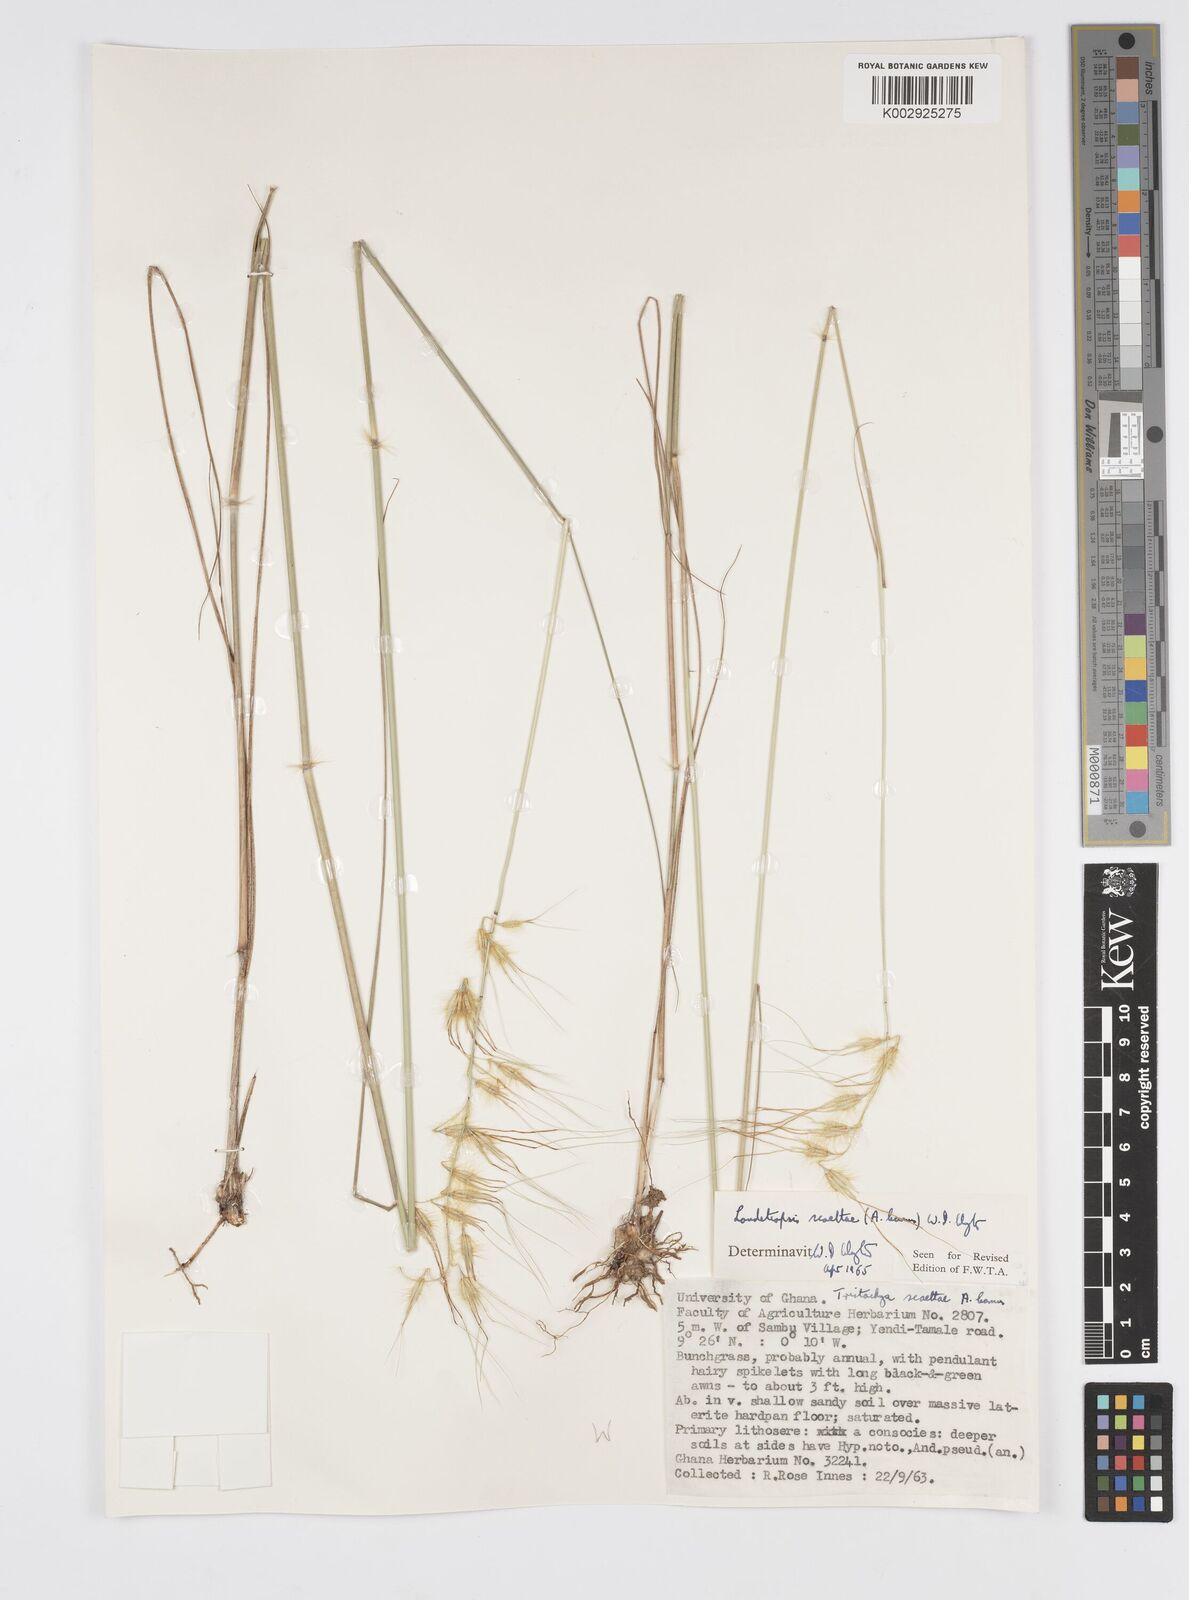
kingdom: Plantae
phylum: Tracheophyta
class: Liliopsida
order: Poales
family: Poaceae
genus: Loudetiopsis
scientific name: Loudetiopsis scaettae
